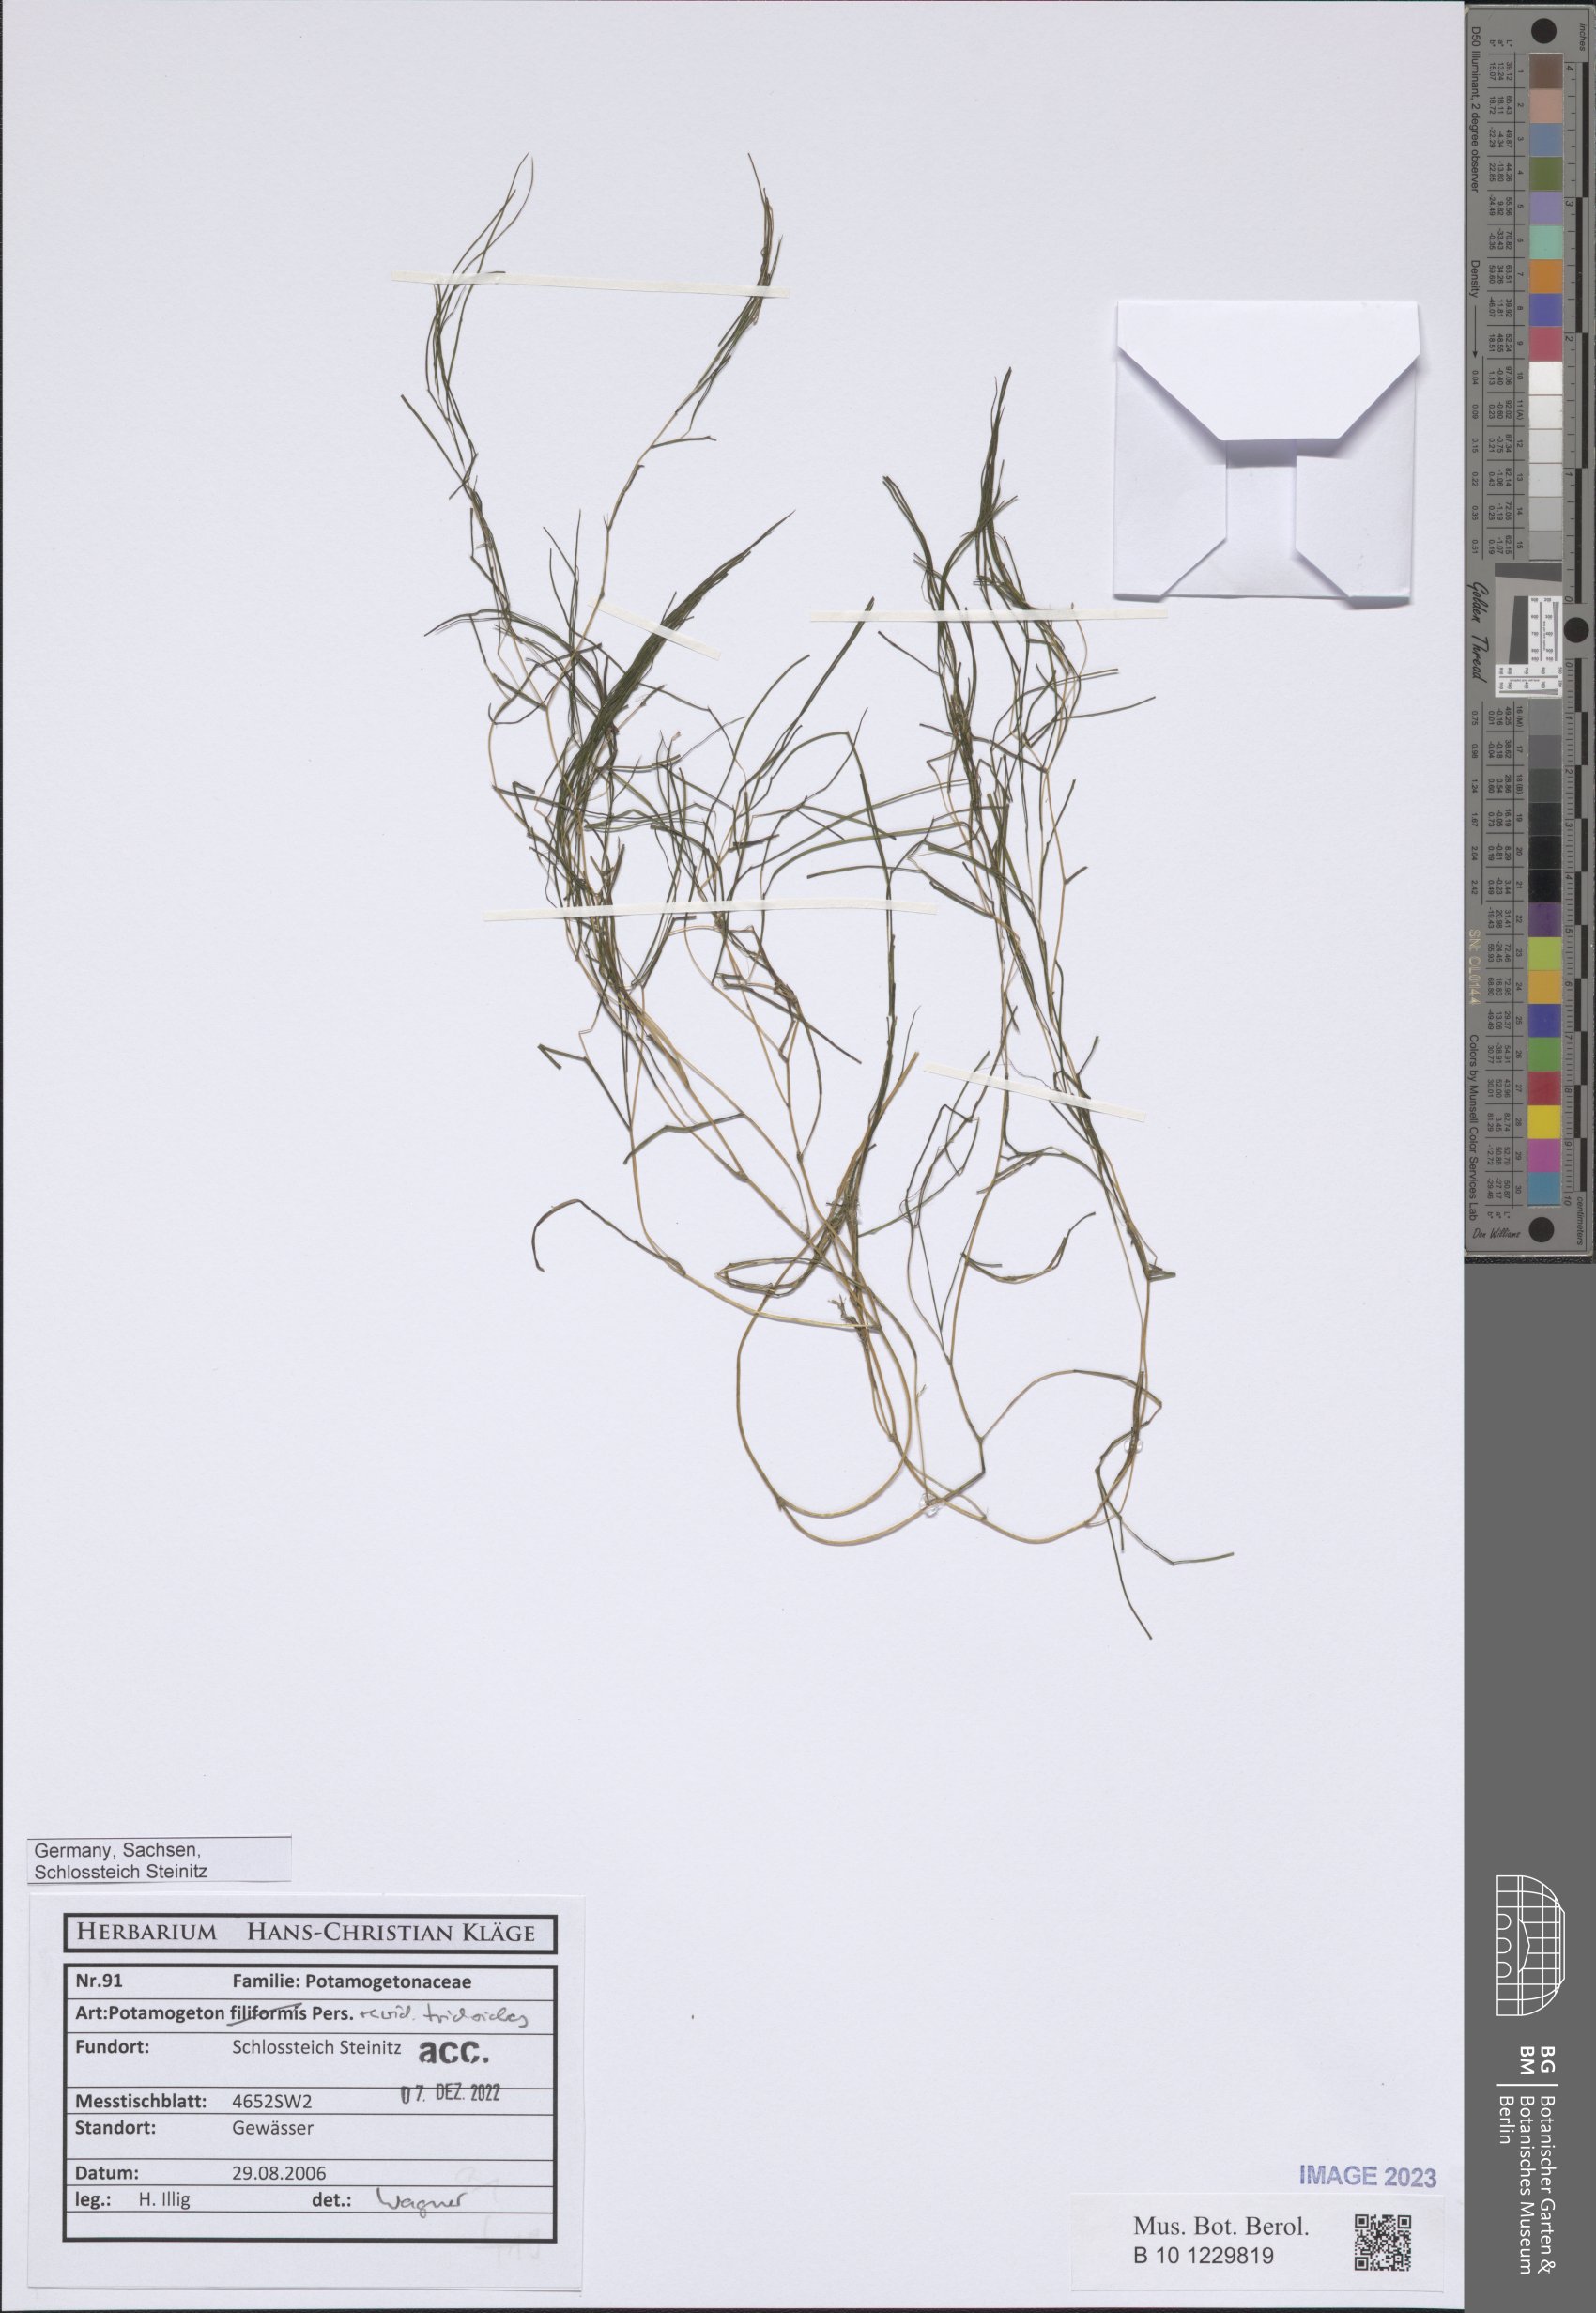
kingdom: Plantae
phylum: Tracheophyta
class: Liliopsida
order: Alismatales
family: Potamogetonaceae
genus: Potamogeton
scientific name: Potamogeton trichoides
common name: Hairlike pondweed
